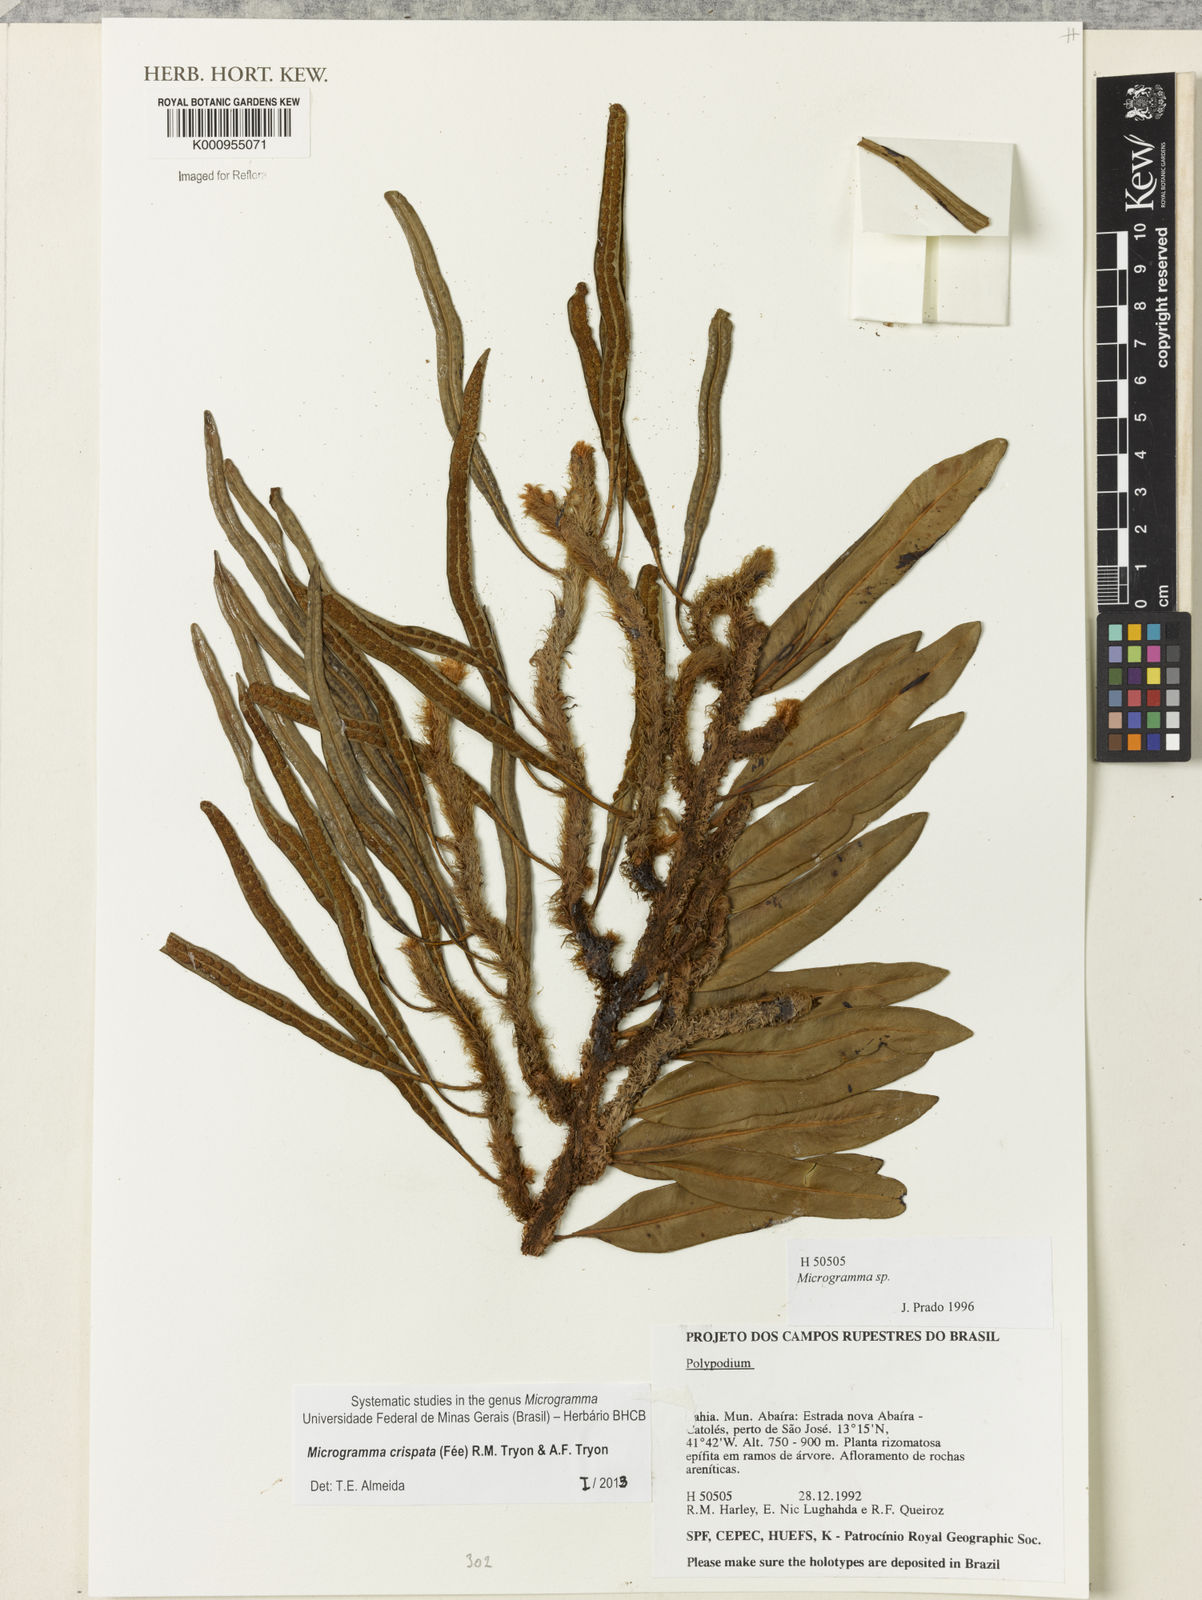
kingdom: Plantae
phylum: Tracheophyta
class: Polypodiopsida
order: Polypodiales
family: Polypodiaceae
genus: Microgramma
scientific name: Microgramma
